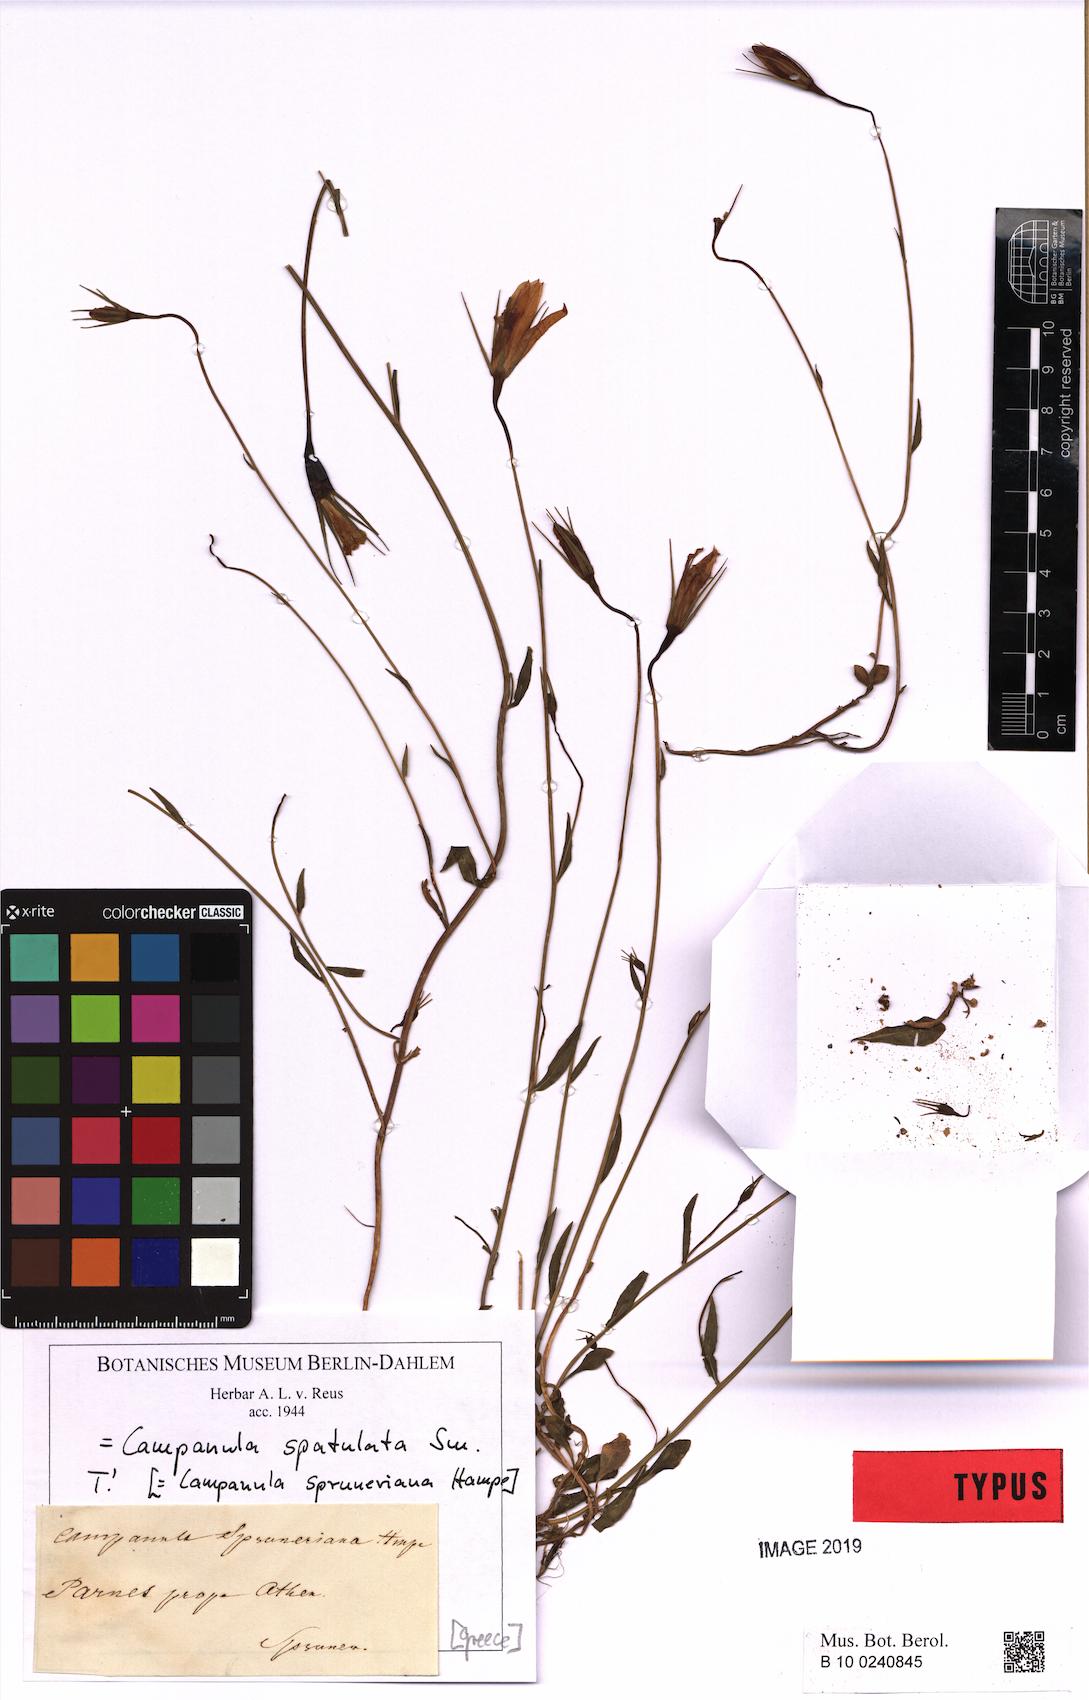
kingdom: Plantae
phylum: Tracheophyta
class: Magnoliopsida
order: Asterales
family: Campanulaceae
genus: Campanula
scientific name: Campanula spatulata
